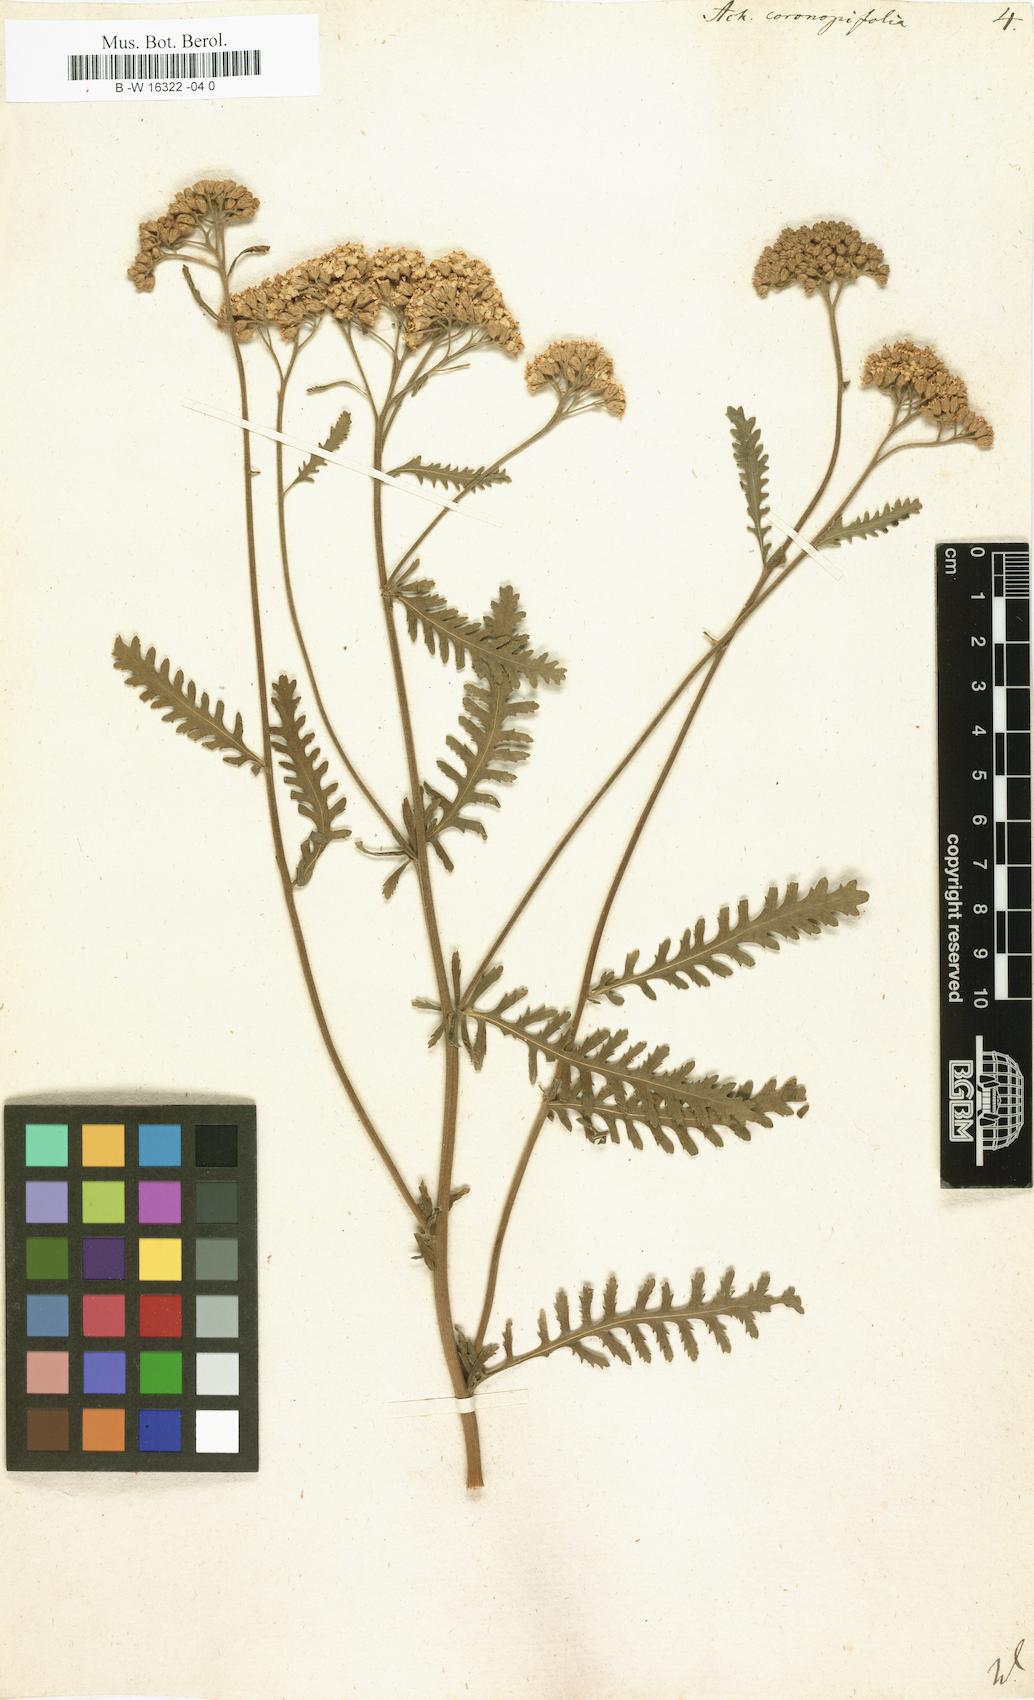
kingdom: Plantae
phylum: Tracheophyta
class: Magnoliopsida
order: Asterales
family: Asteraceae
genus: Achillea
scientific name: Achillea millefolium
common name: Yarrow
